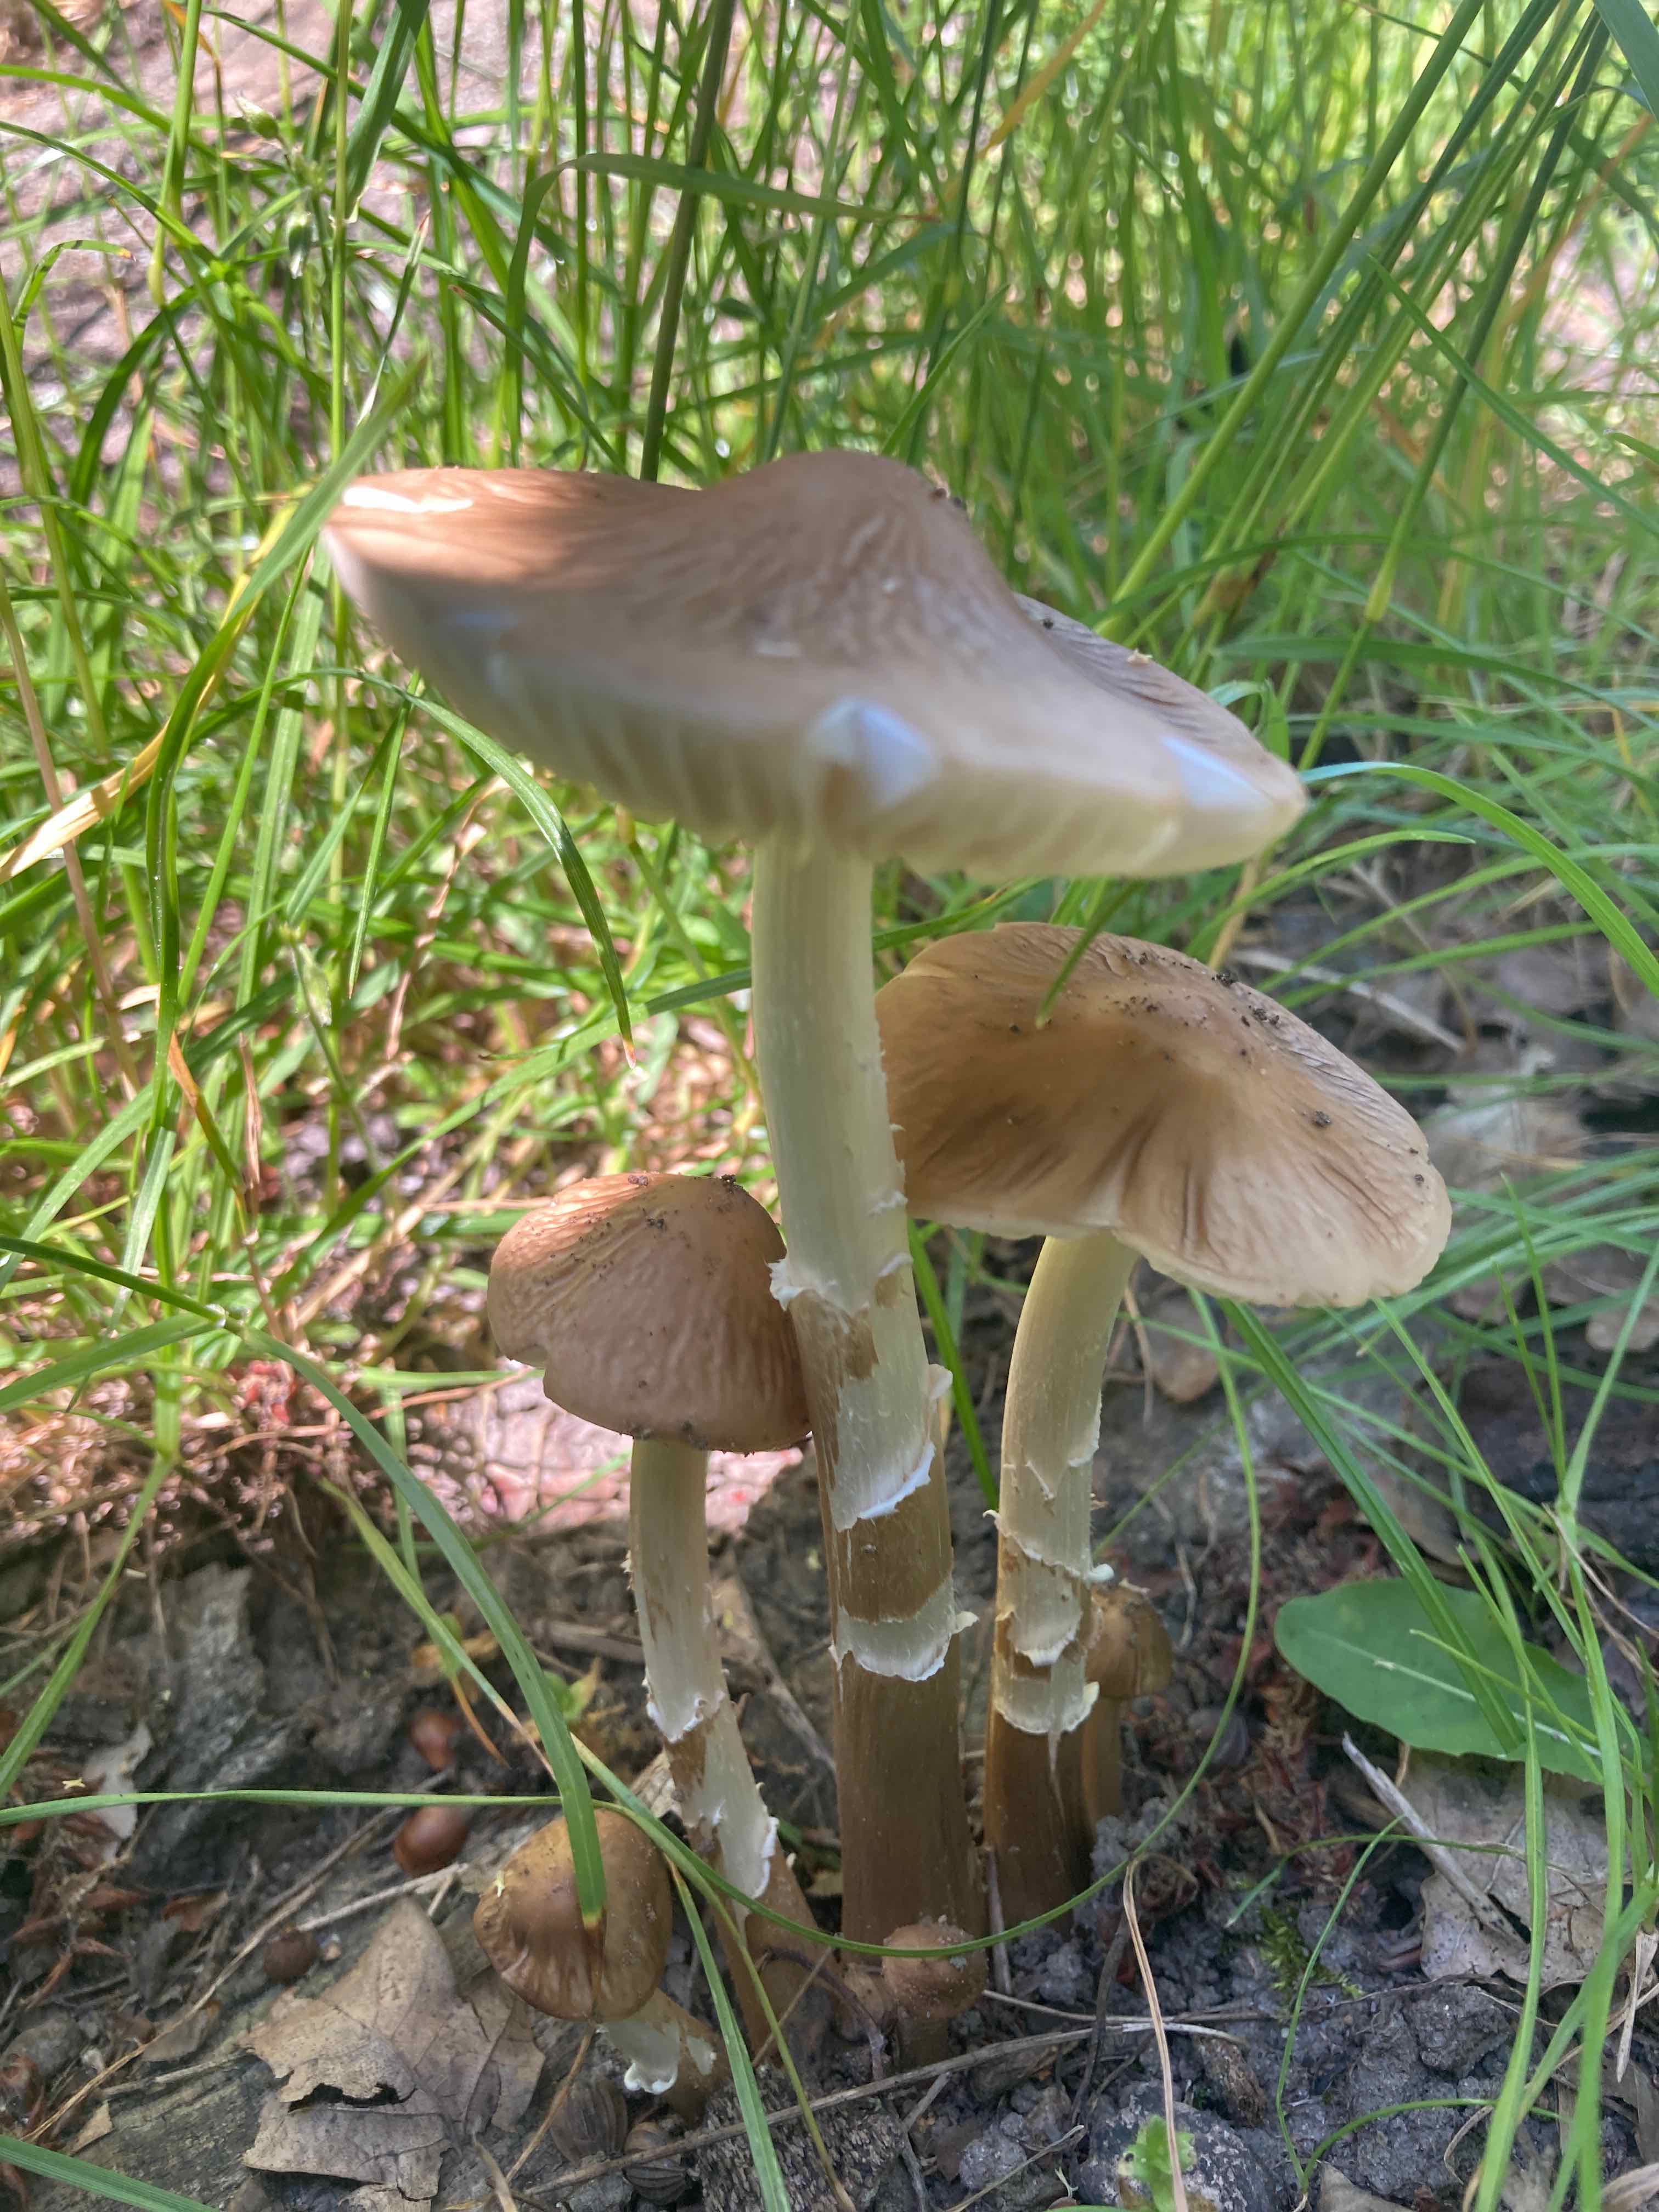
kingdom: Fungi
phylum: Basidiomycota
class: Agaricomycetes
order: Agaricales
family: Physalacriaceae
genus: Hymenopellis
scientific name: Hymenopellis radicata
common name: almindelig pælerodshat
